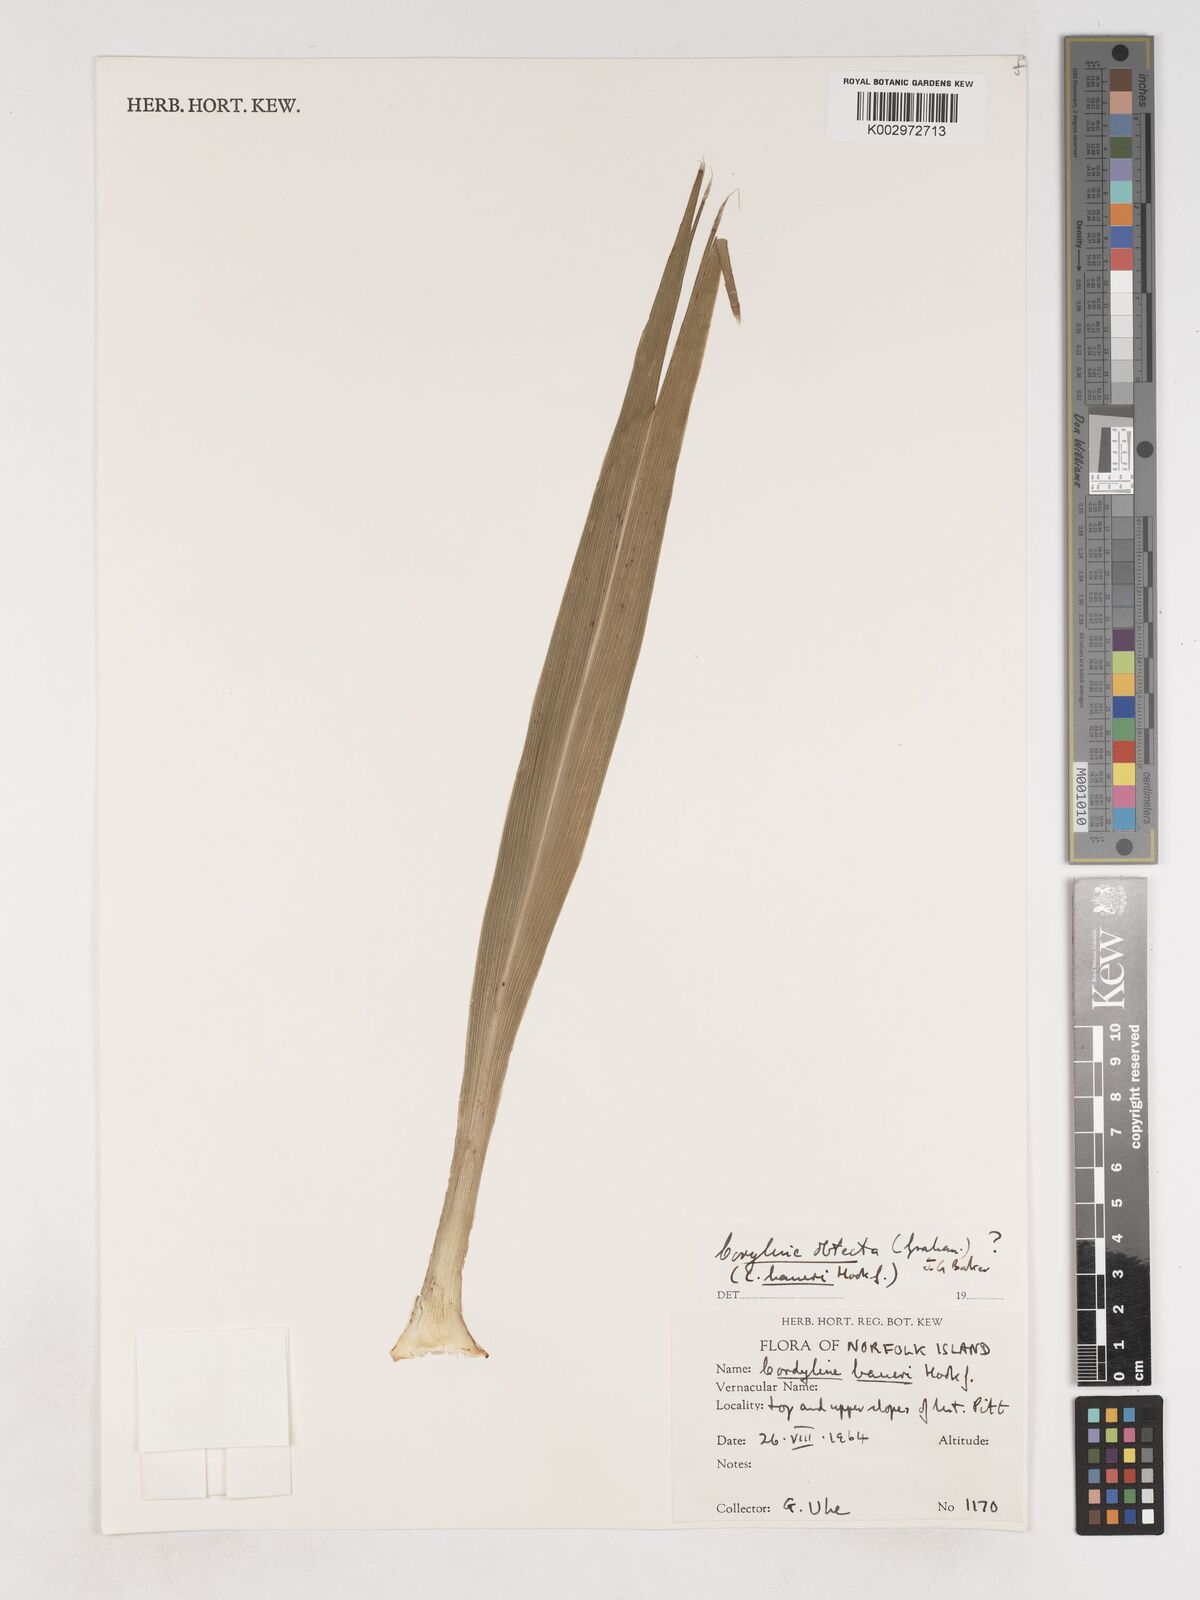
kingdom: Plantae
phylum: Tracheophyta
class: Liliopsida
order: Asparagales
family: Asparagaceae
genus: Cordyline
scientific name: Cordyline obtecta
